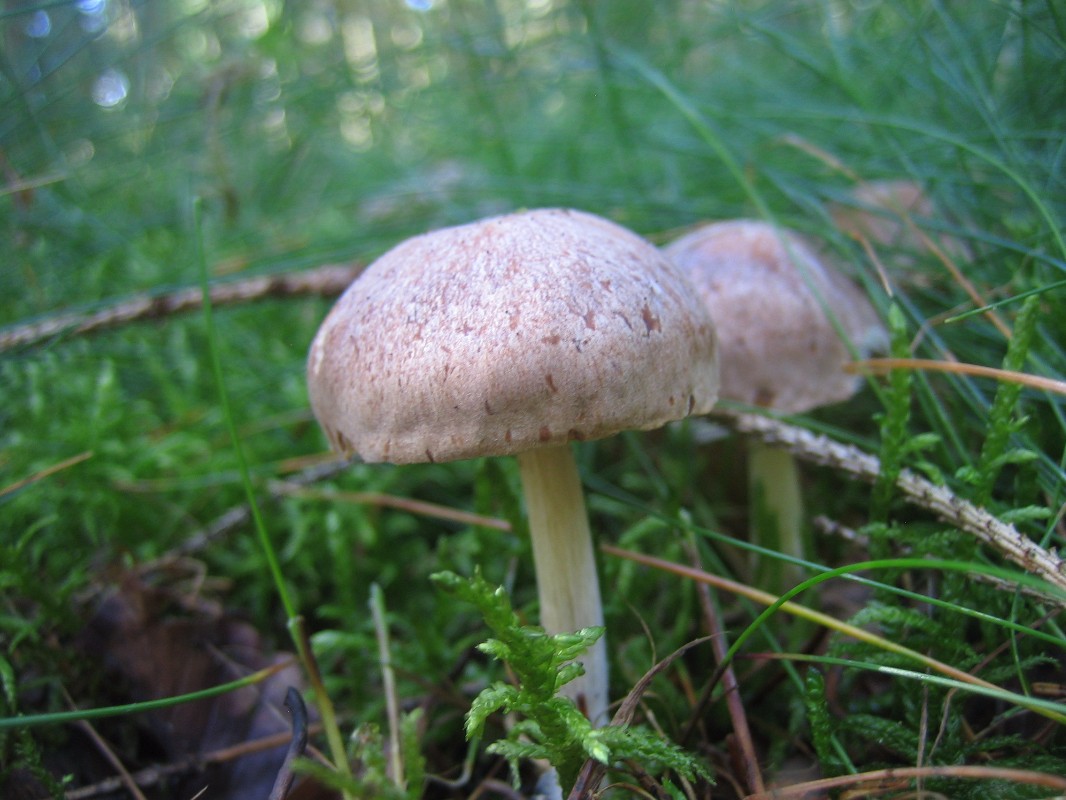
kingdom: Fungi
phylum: Basidiomycota
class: Agaricomycetes
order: Agaricales
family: Omphalotaceae
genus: Collybiopsis
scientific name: Collybiopsis peronata
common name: bestøvlet fladhat
